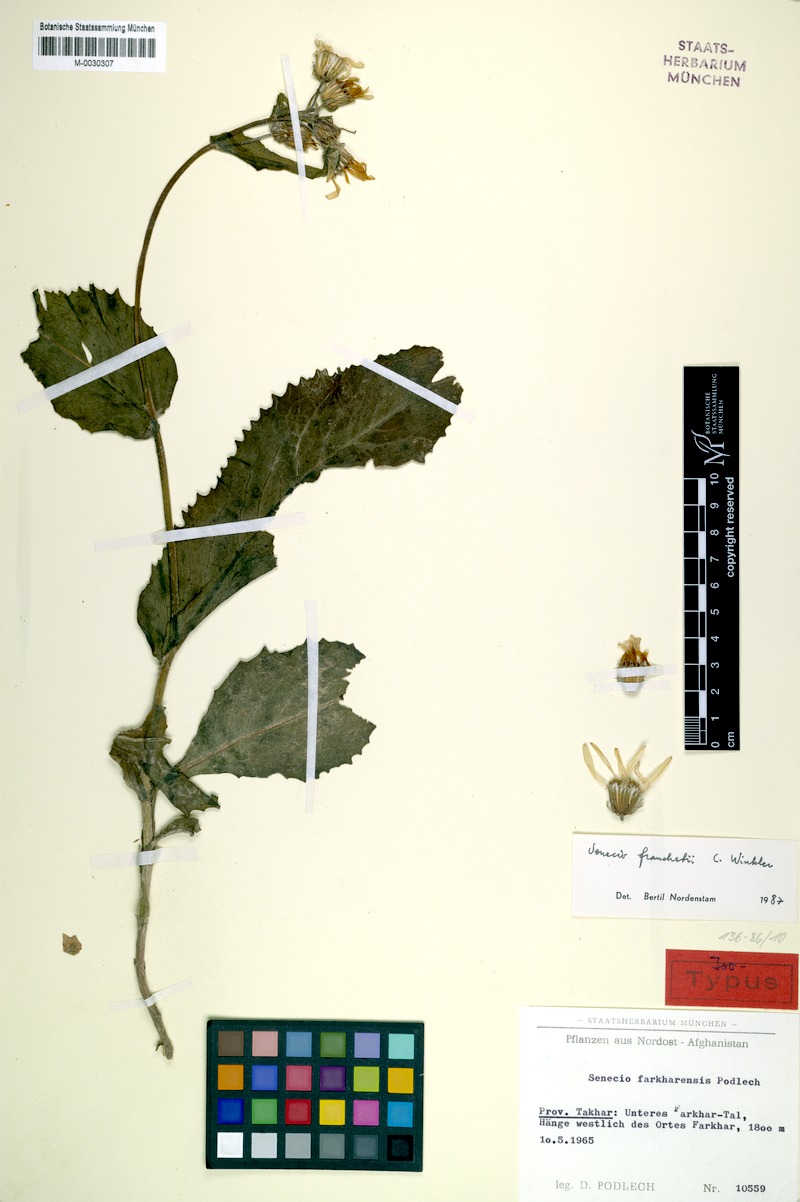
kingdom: Plantae
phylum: Tracheophyta
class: Magnoliopsida
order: Asterales
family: Asteraceae
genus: Senecio
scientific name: Senecio franchetii
